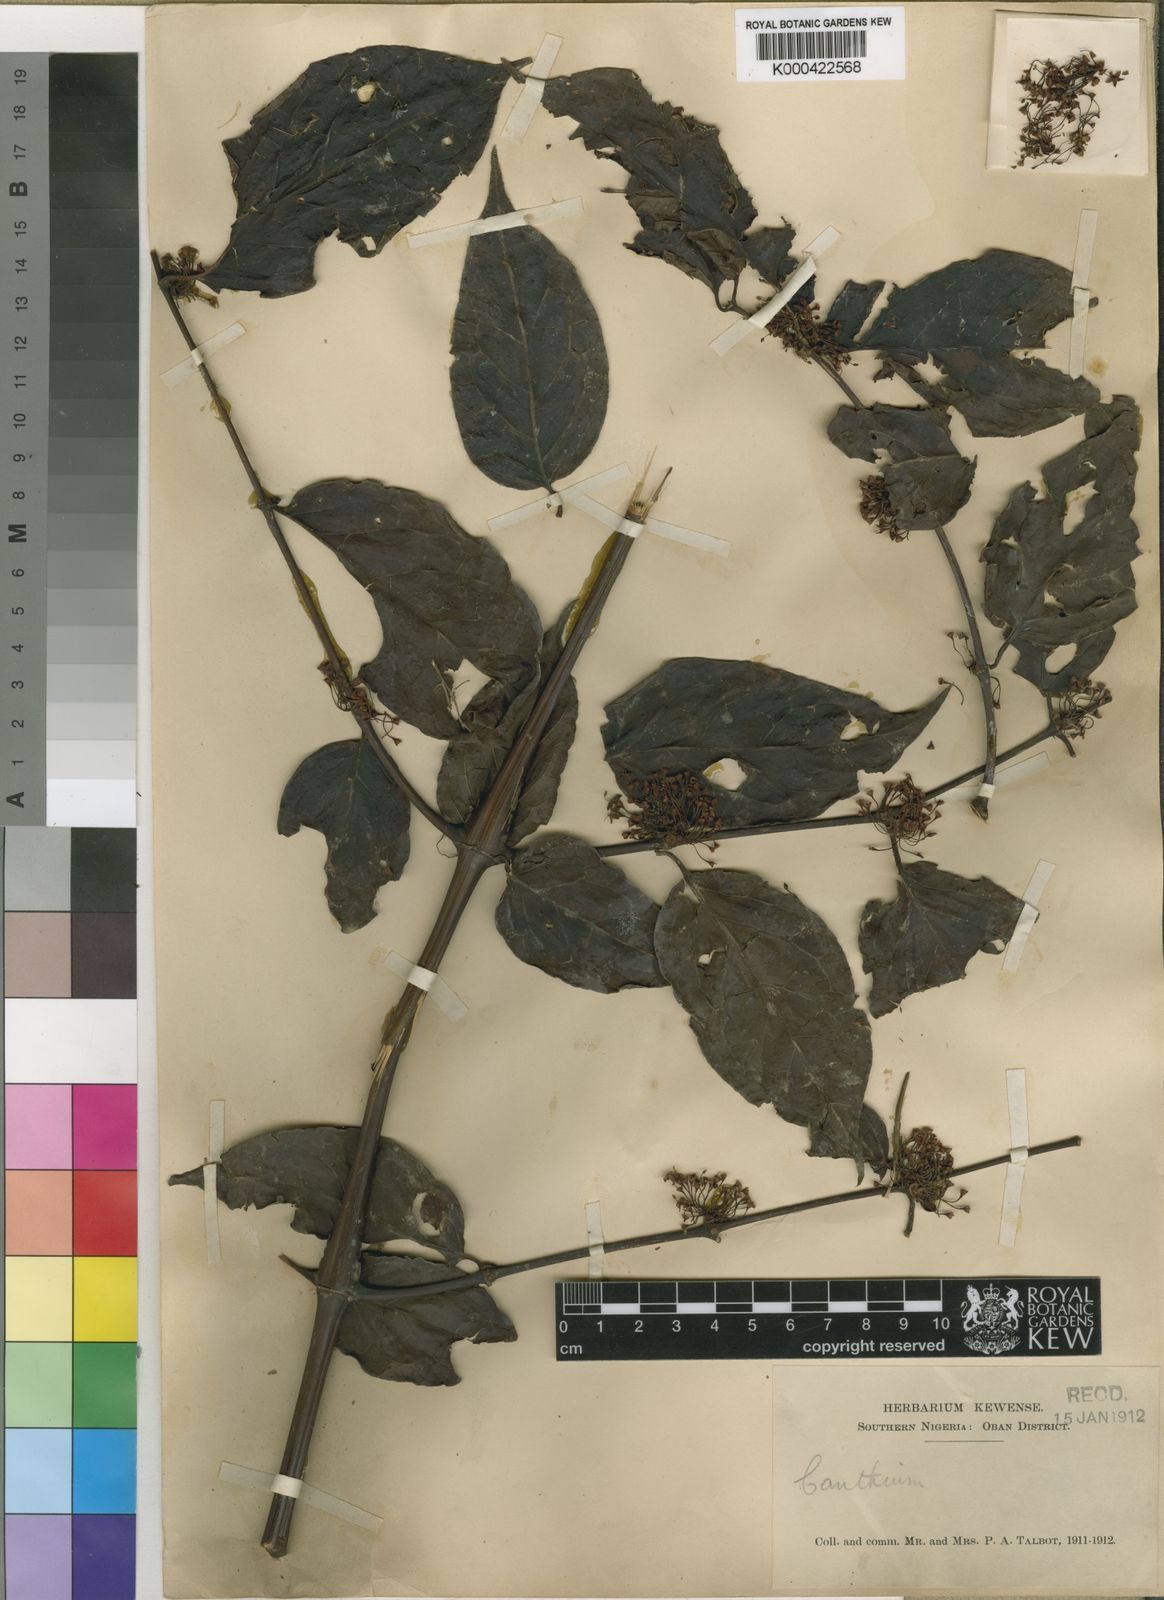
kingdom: Plantae
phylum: Tracheophyta
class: Magnoliopsida
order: Gentianales
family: Rubiaceae
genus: Keetia
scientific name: Keetia hispida
